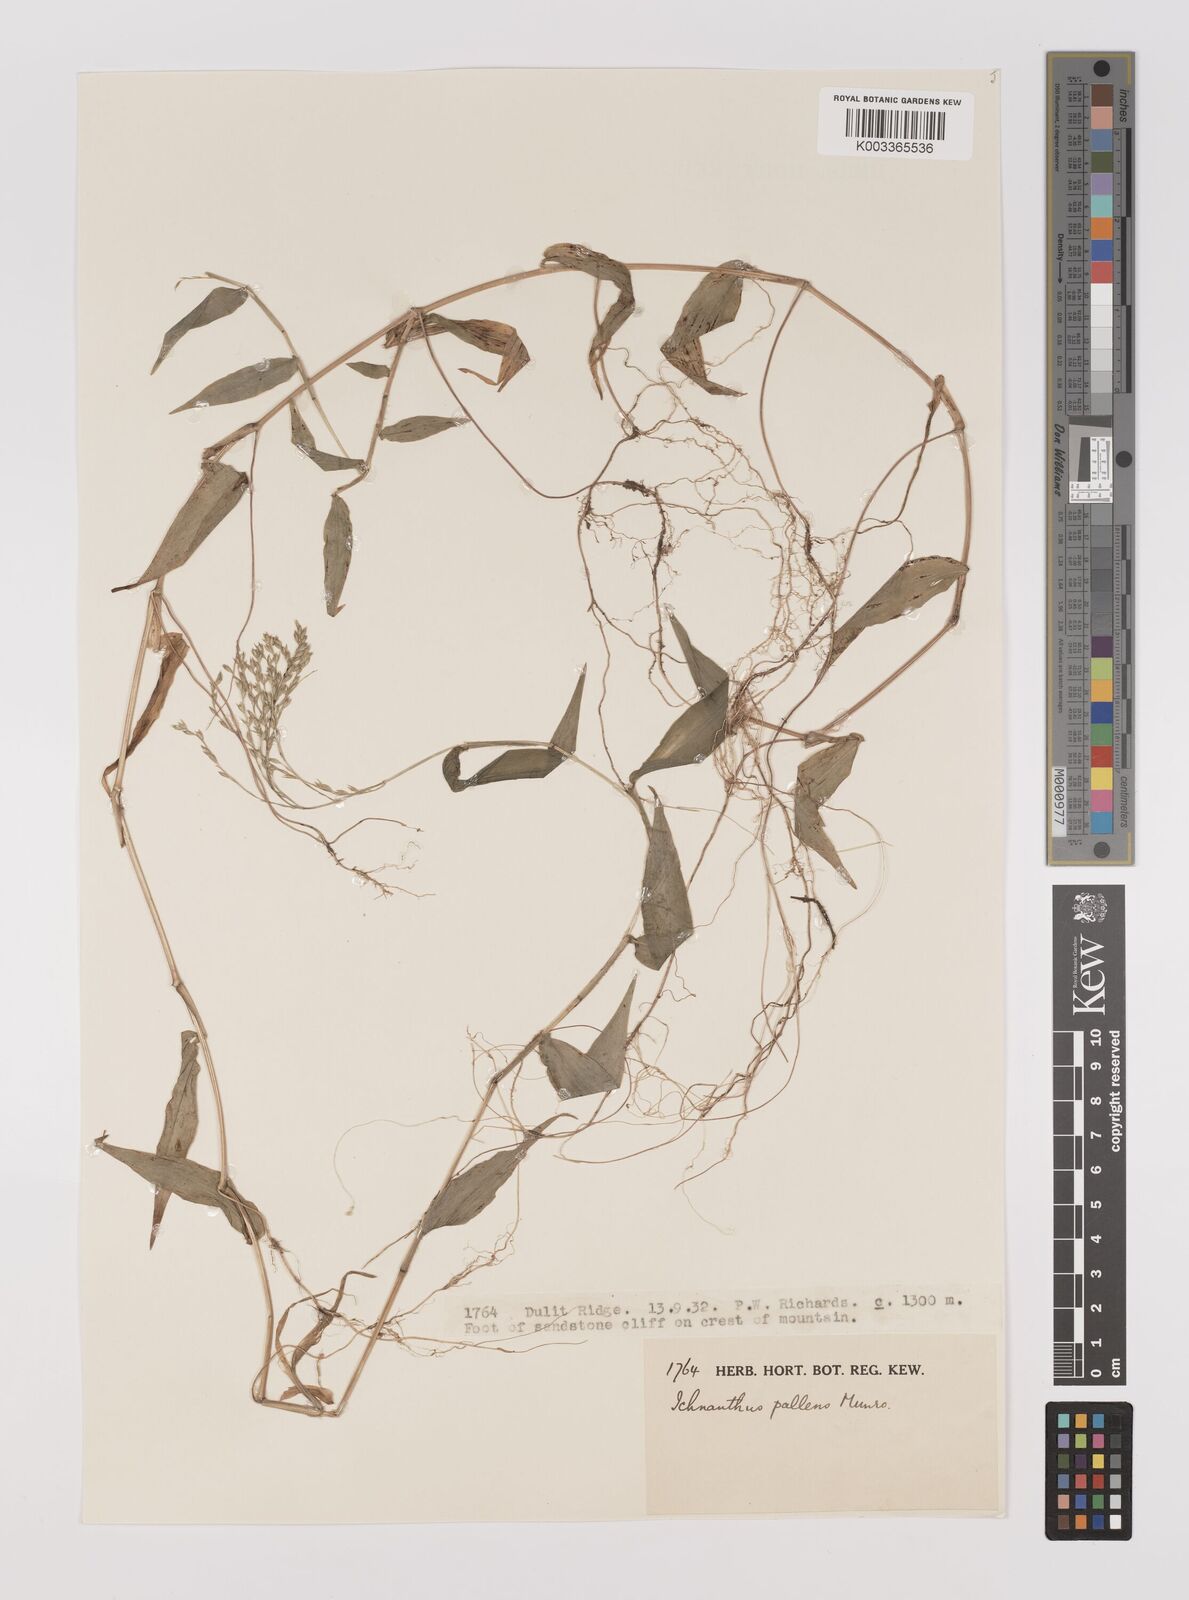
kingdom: Plantae
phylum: Tracheophyta
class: Liliopsida
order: Poales
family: Poaceae
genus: Ichnanthus
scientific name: Ichnanthus pallens
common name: Water grass
